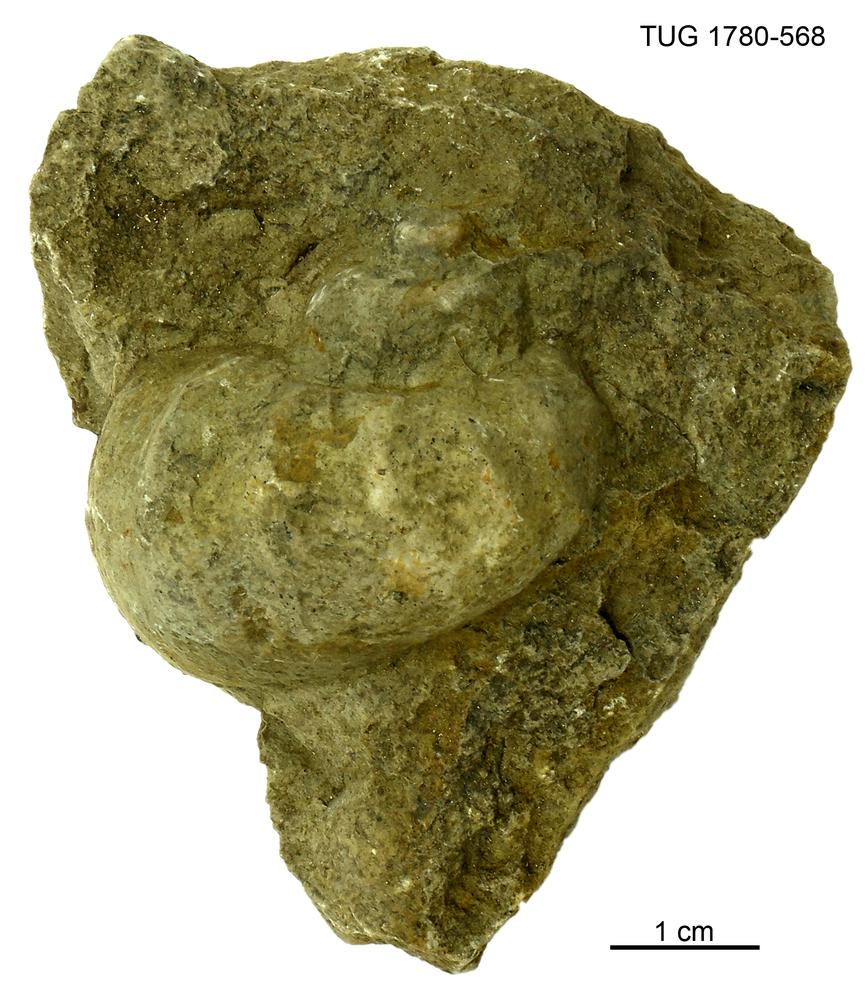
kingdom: Animalia
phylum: Mollusca
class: Gastropoda
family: Holopeidae
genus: Holopea
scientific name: Holopea ampullacea
